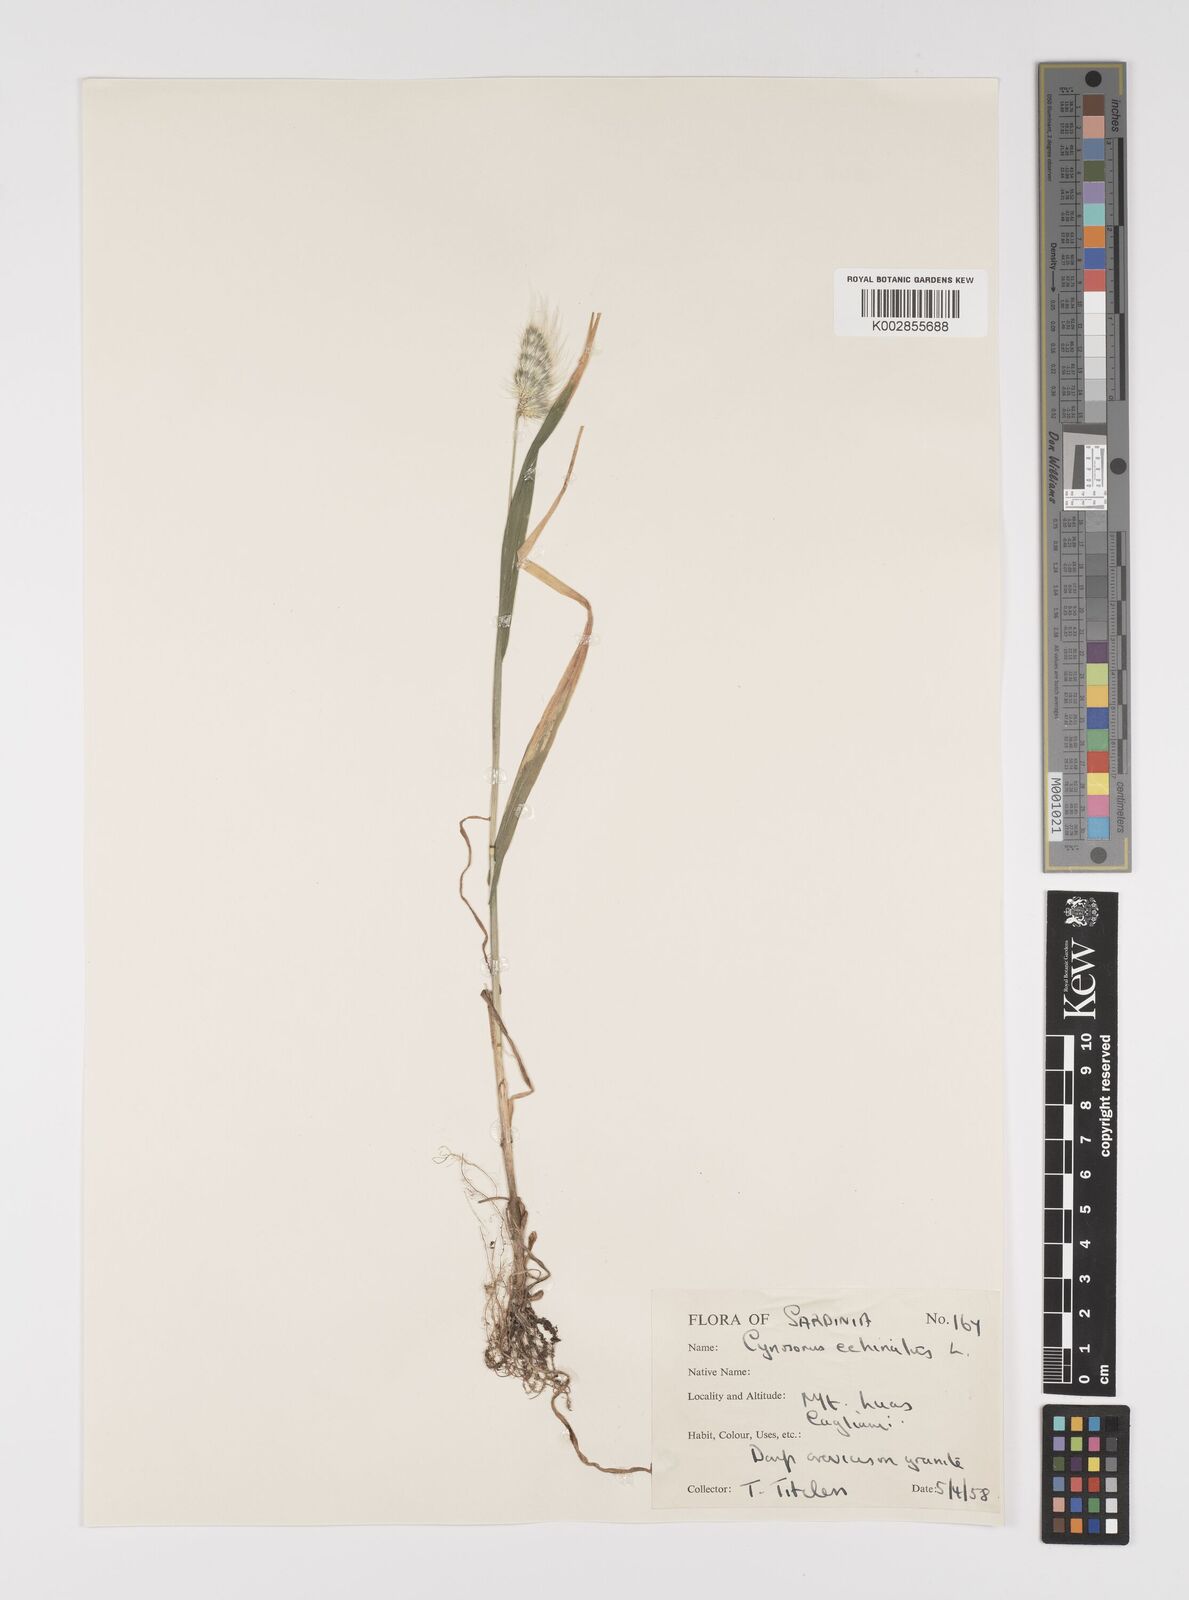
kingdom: Plantae
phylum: Tracheophyta
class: Liliopsida
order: Poales
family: Poaceae
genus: Cynosurus
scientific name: Cynosurus echinatus
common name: Rough dog's-tail
